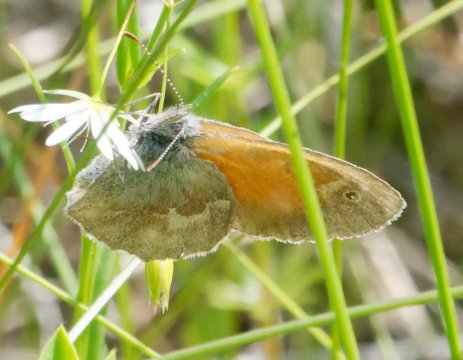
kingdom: Animalia
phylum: Arthropoda
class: Insecta
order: Lepidoptera
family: Nymphalidae
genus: Coenonympha
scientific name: Coenonympha tullia
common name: Large Heath
